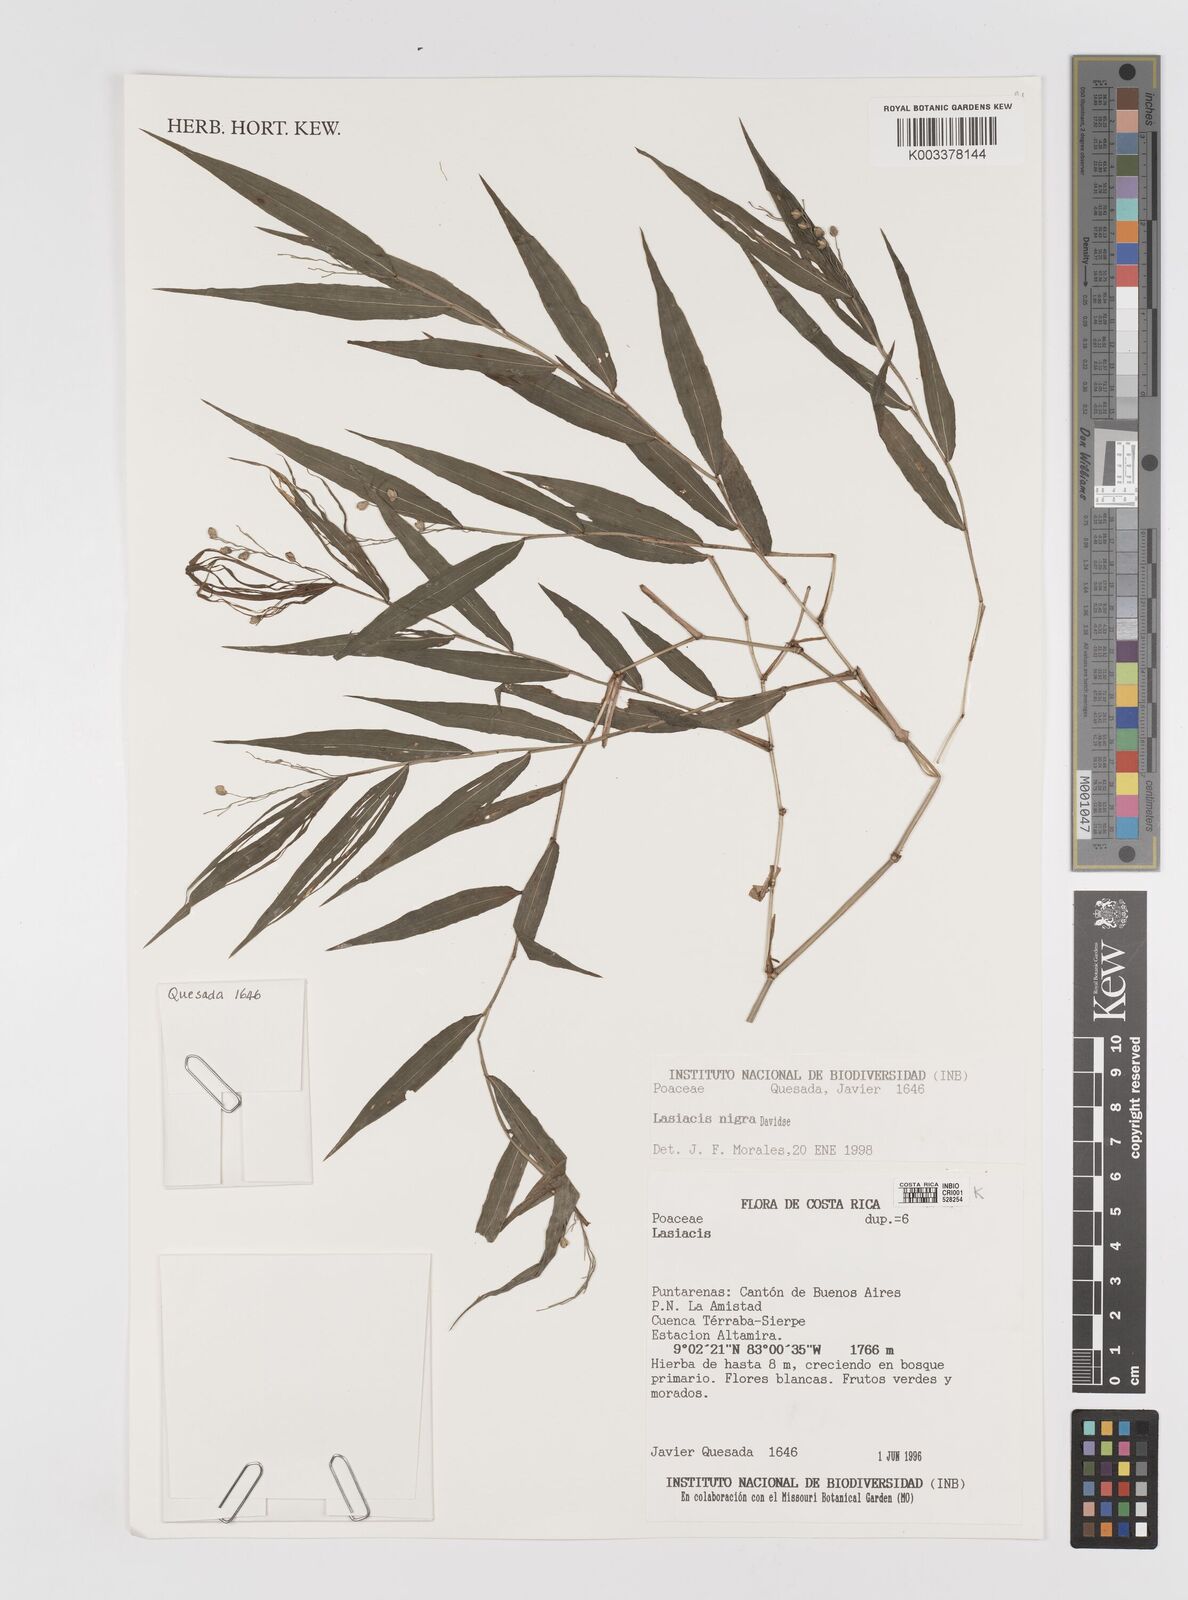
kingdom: Plantae
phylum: Tracheophyta
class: Liliopsida
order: Poales
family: Poaceae
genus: Lasiacis
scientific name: Lasiacis nigra
